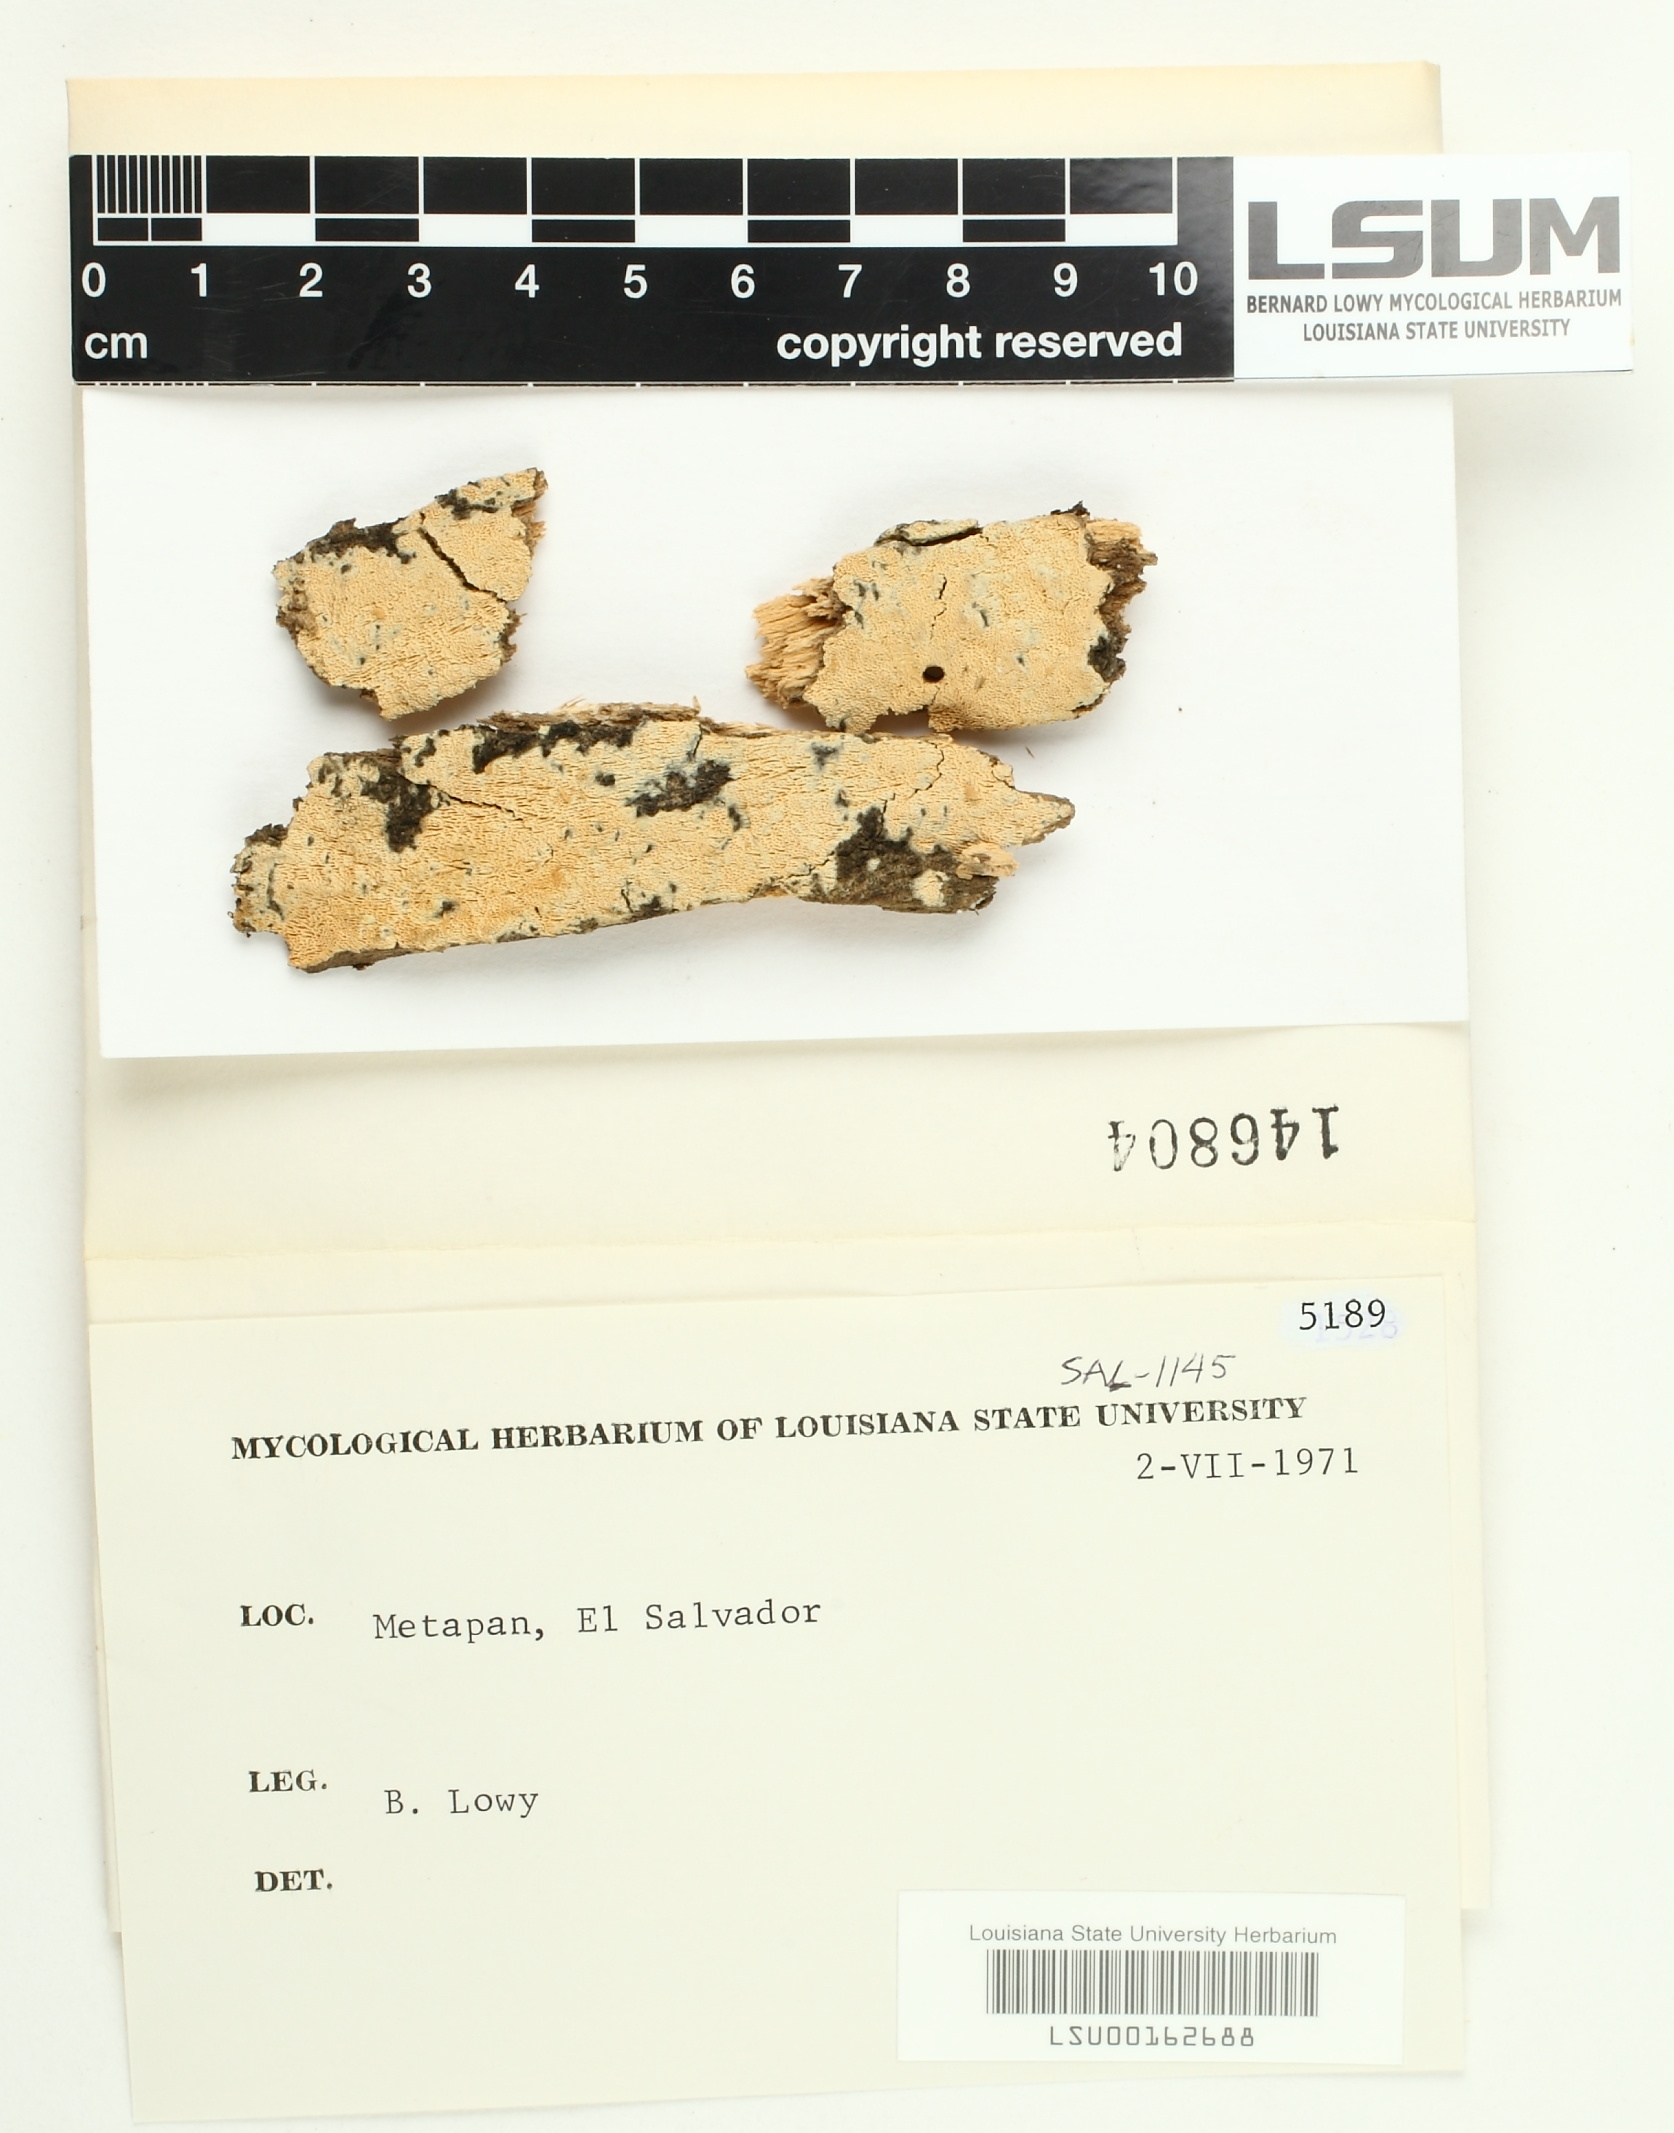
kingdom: Fungi
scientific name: Fungi
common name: Fungi
